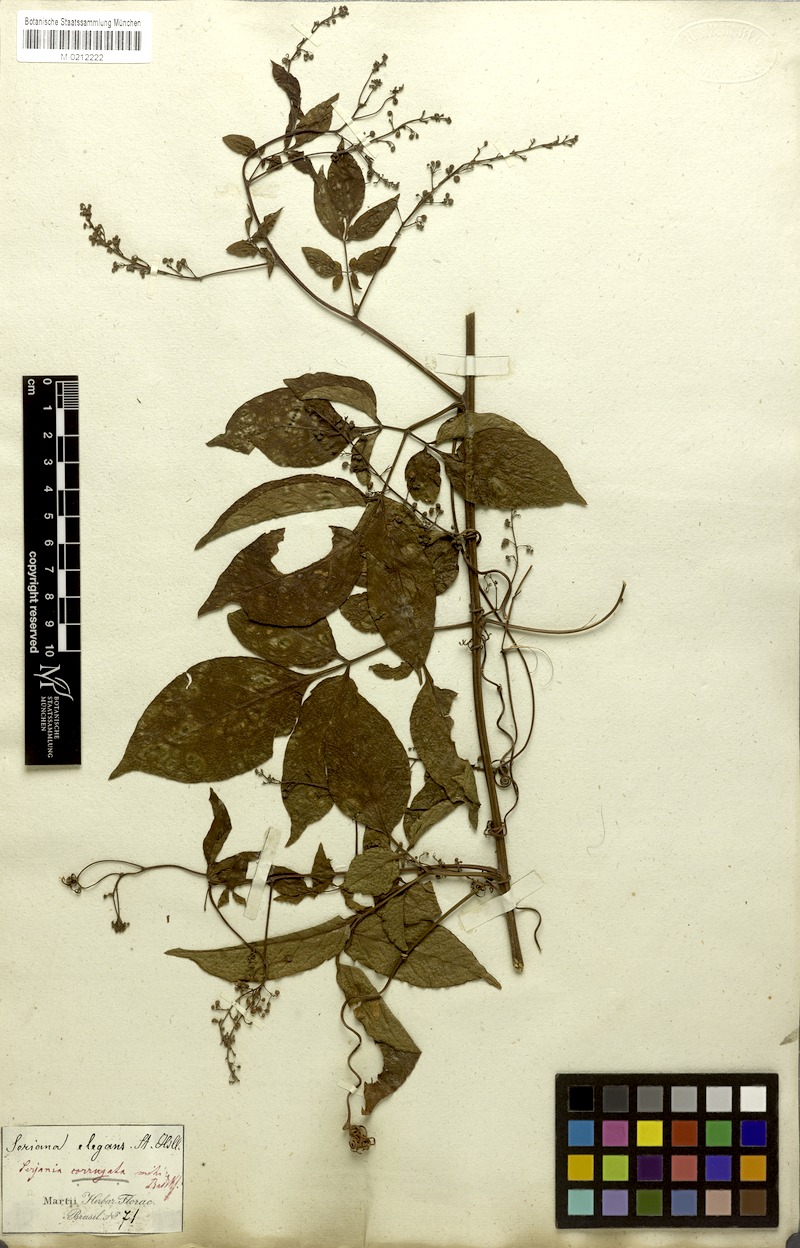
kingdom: Plantae
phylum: Tracheophyta
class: Magnoliopsida
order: Sapindales
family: Sapindaceae
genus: Serjania
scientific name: Serjania corrugata
